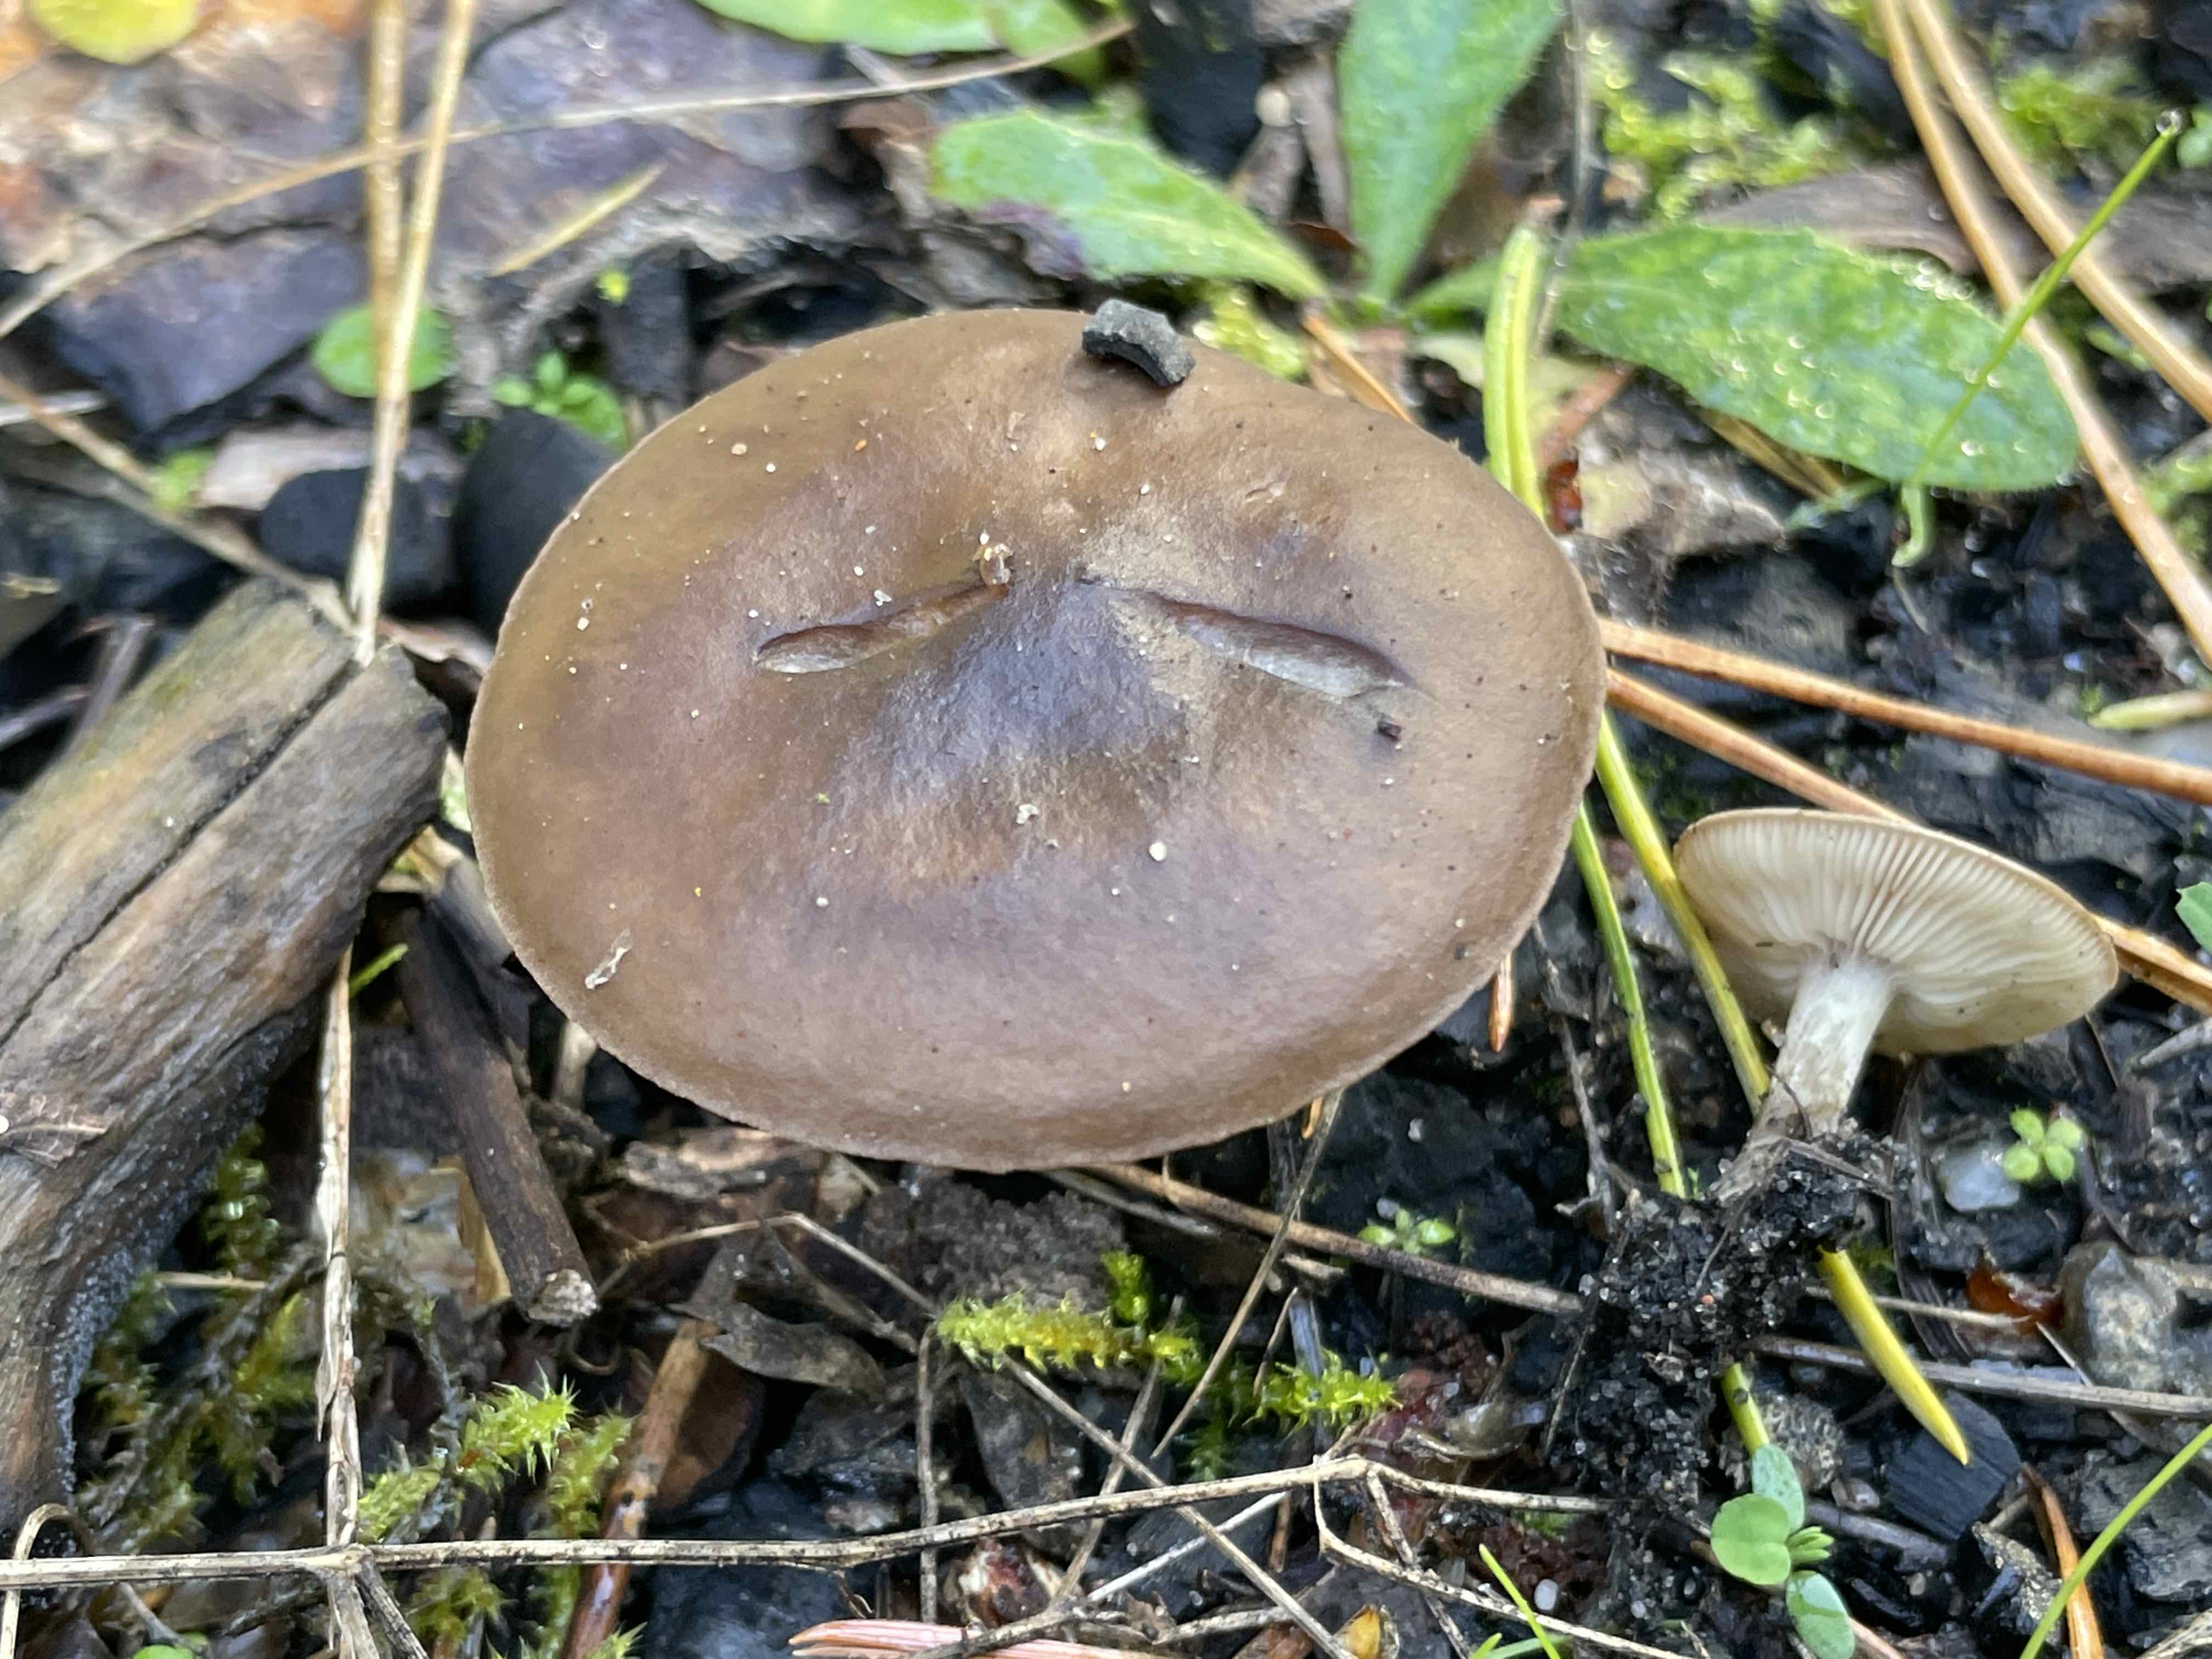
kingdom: Fungi
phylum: Basidiomycota
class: Agaricomycetes
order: Agaricales
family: Tricholomataceae
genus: Melanoleuca
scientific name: Melanoleuca
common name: munkehat
